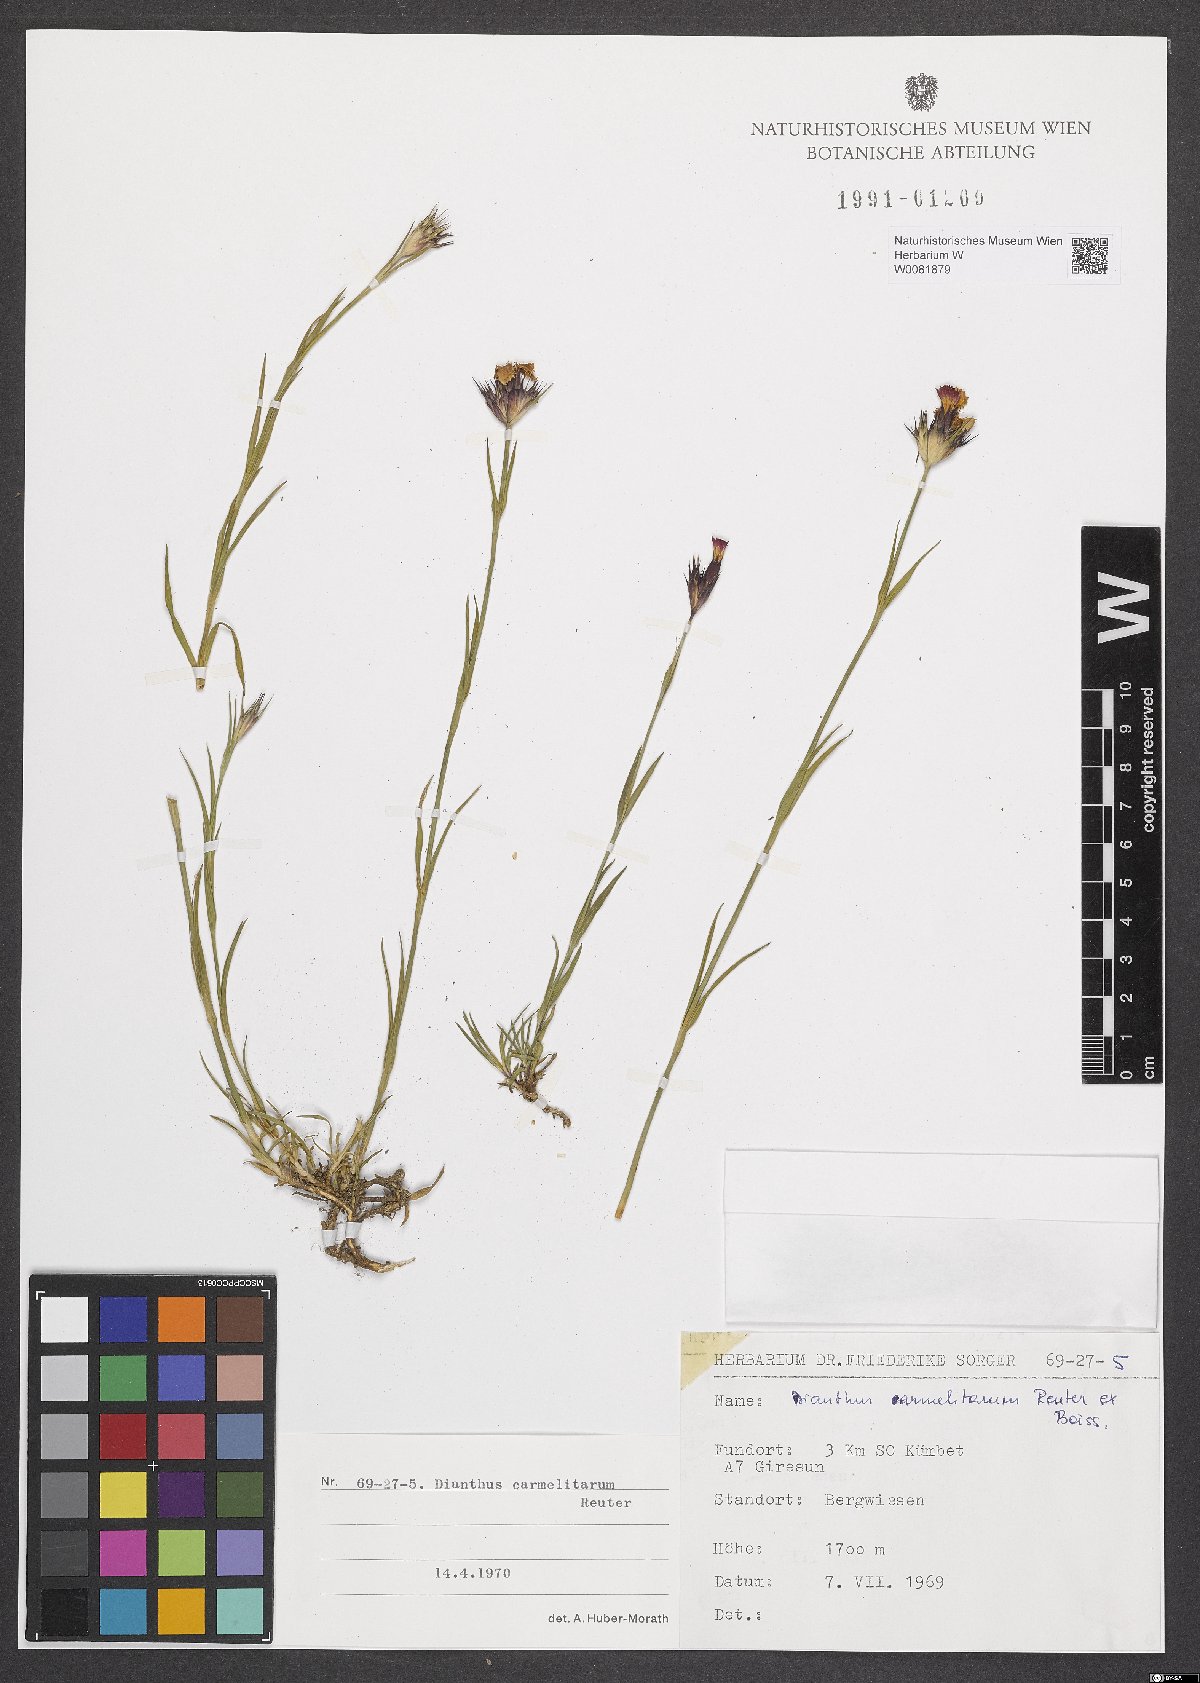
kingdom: Plantae
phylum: Tracheophyta
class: Magnoliopsida
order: Caryophyllales
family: Caryophyllaceae
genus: Dianthus
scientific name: Dianthus carmelitarum
